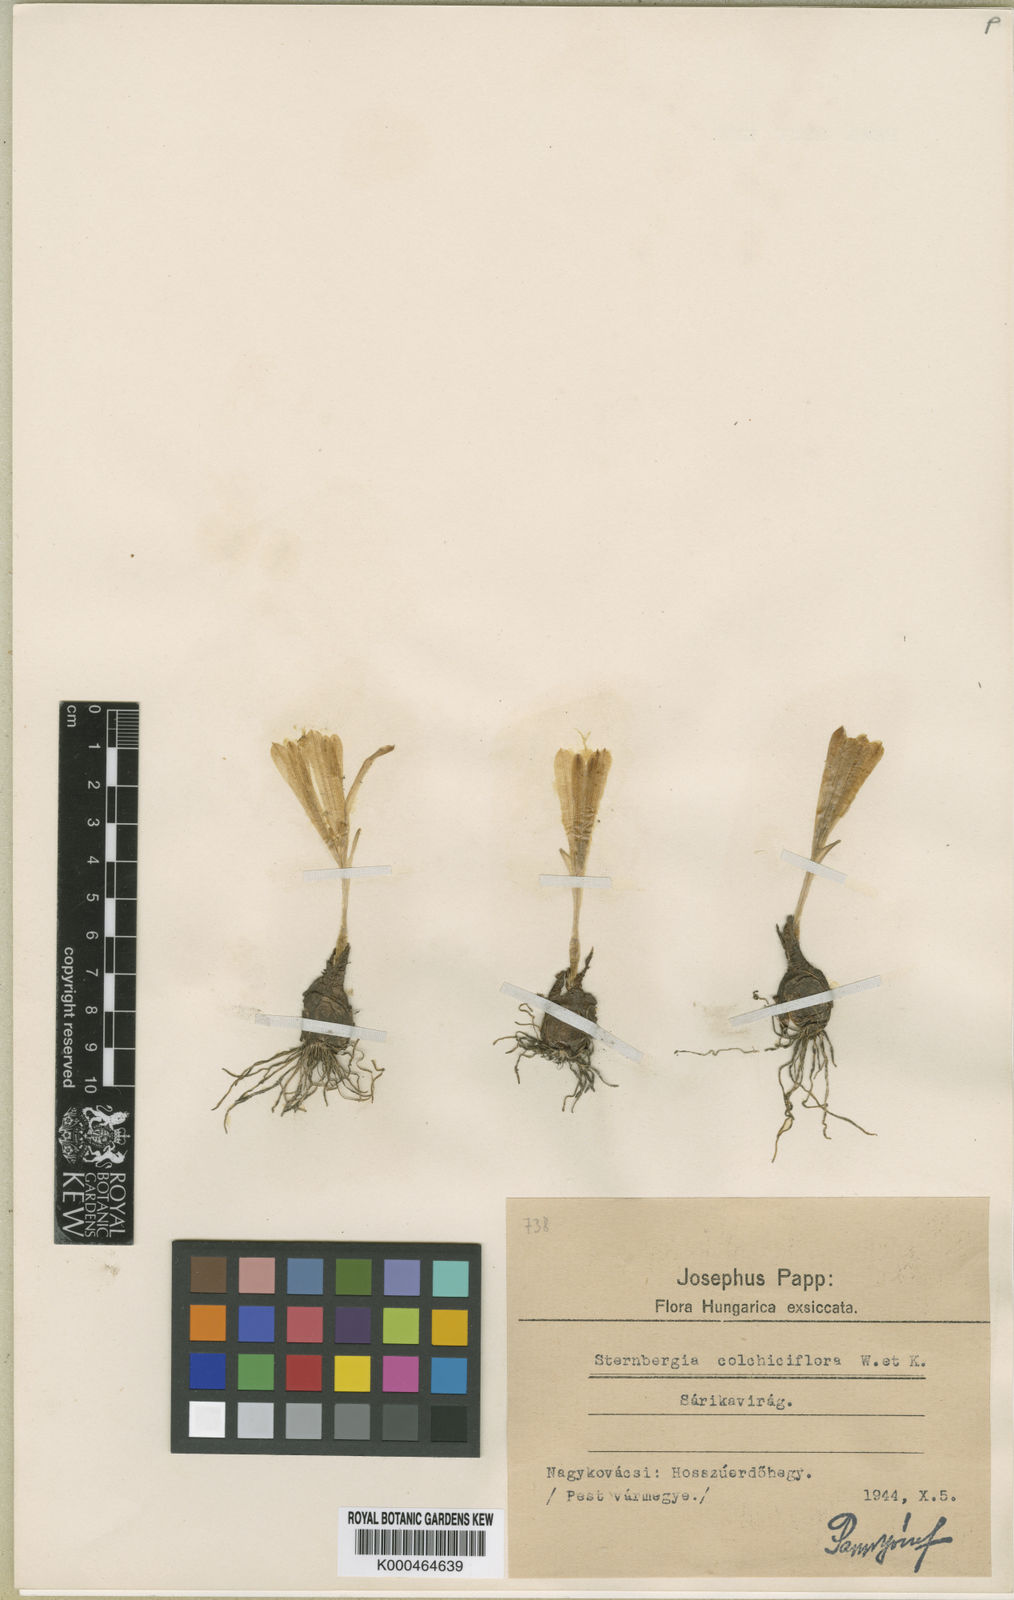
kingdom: Plantae
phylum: Tracheophyta
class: Liliopsida
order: Asparagales
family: Amaryllidaceae
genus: Sternbergia
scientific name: Sternbergia colchiciflora
